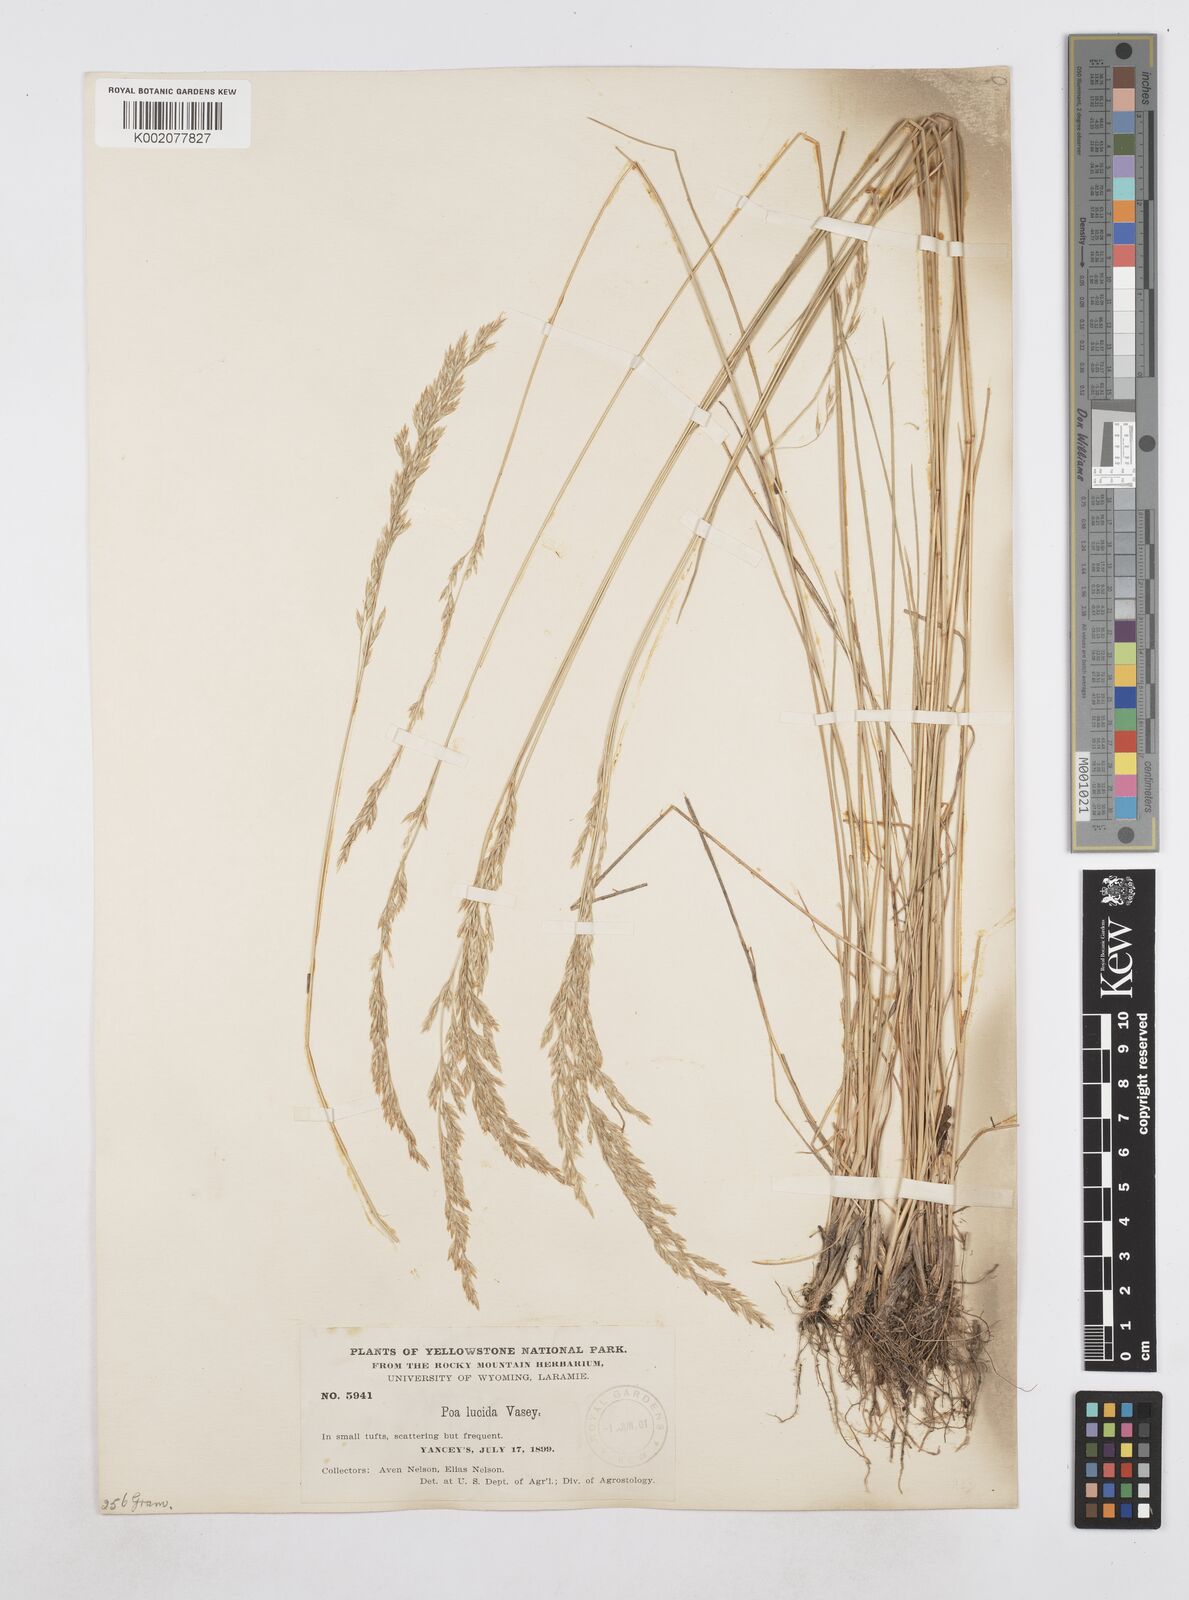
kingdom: Plantae
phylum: Tracheophyta
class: Liliopsida
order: Poales
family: Poaceae
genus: Poa
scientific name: Poa secunda
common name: Sandberg bluegrass
